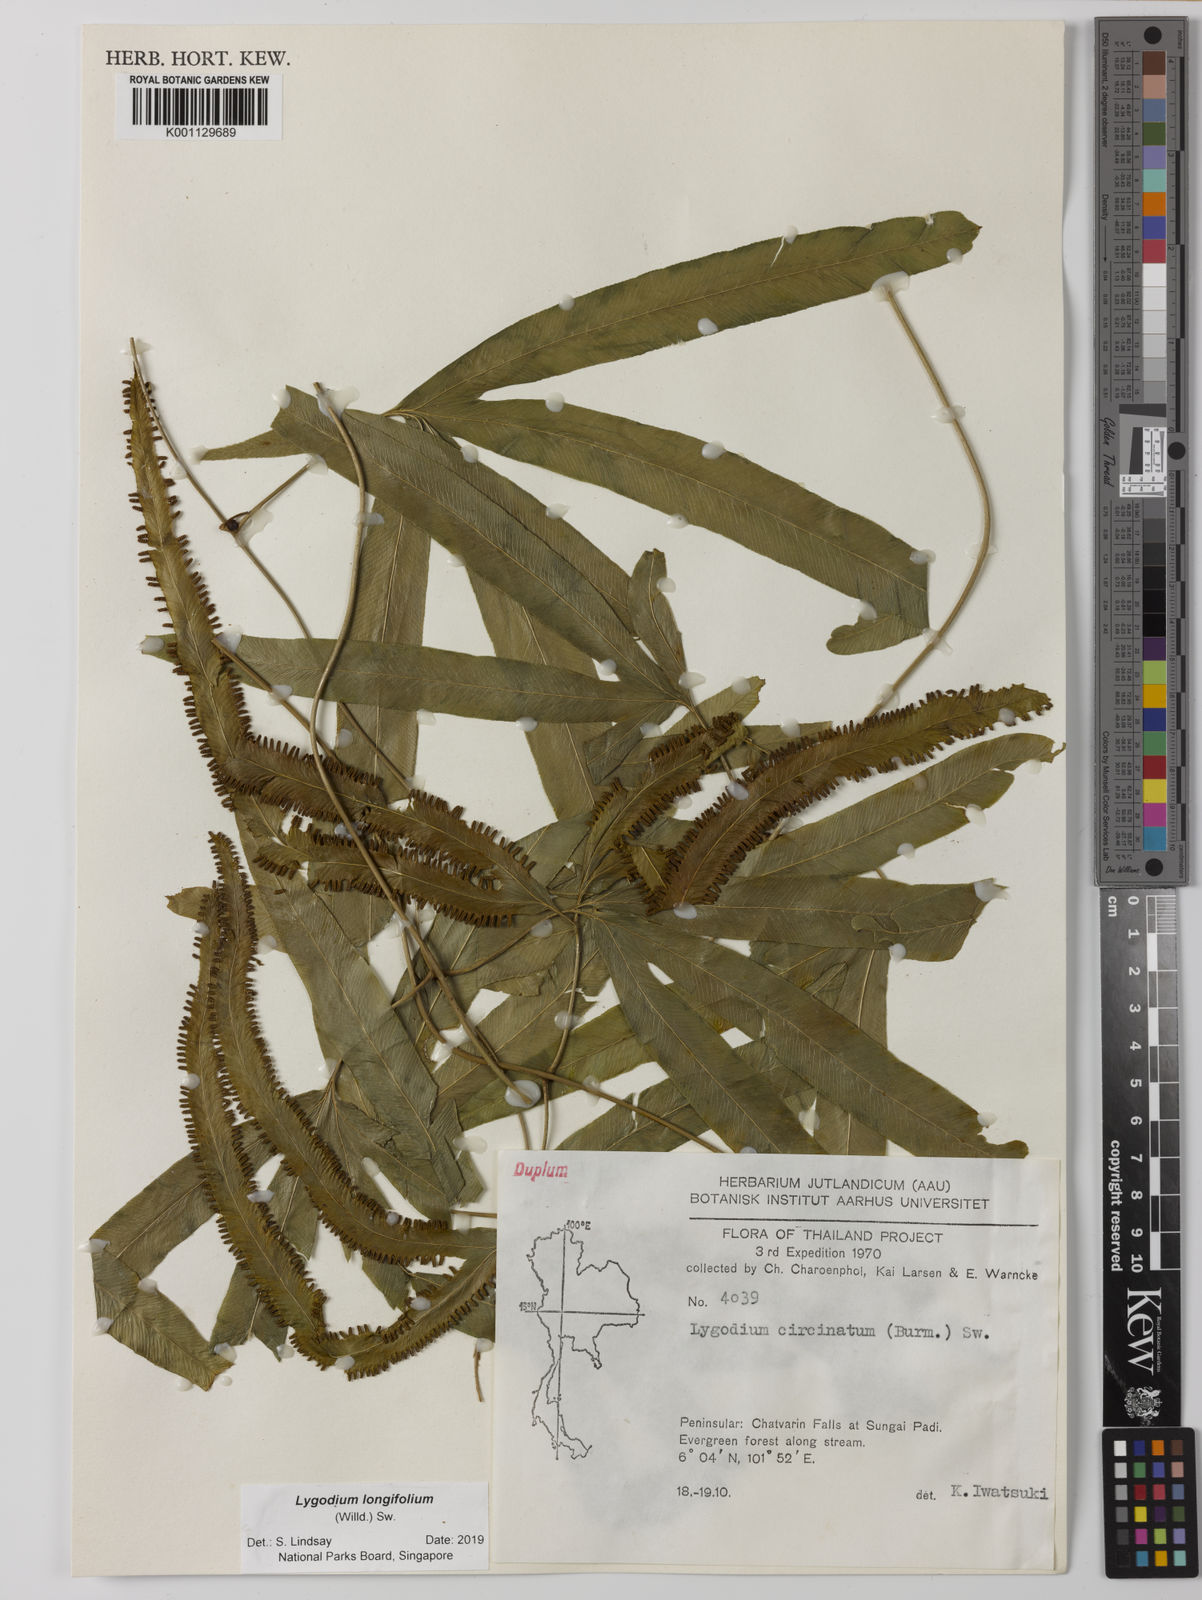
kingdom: Plantae
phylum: Tracheophyta
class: Polypodiopsida
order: Schizaeales
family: Lygodiaceae
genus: Lygodium
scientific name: Lygodium longifolium
